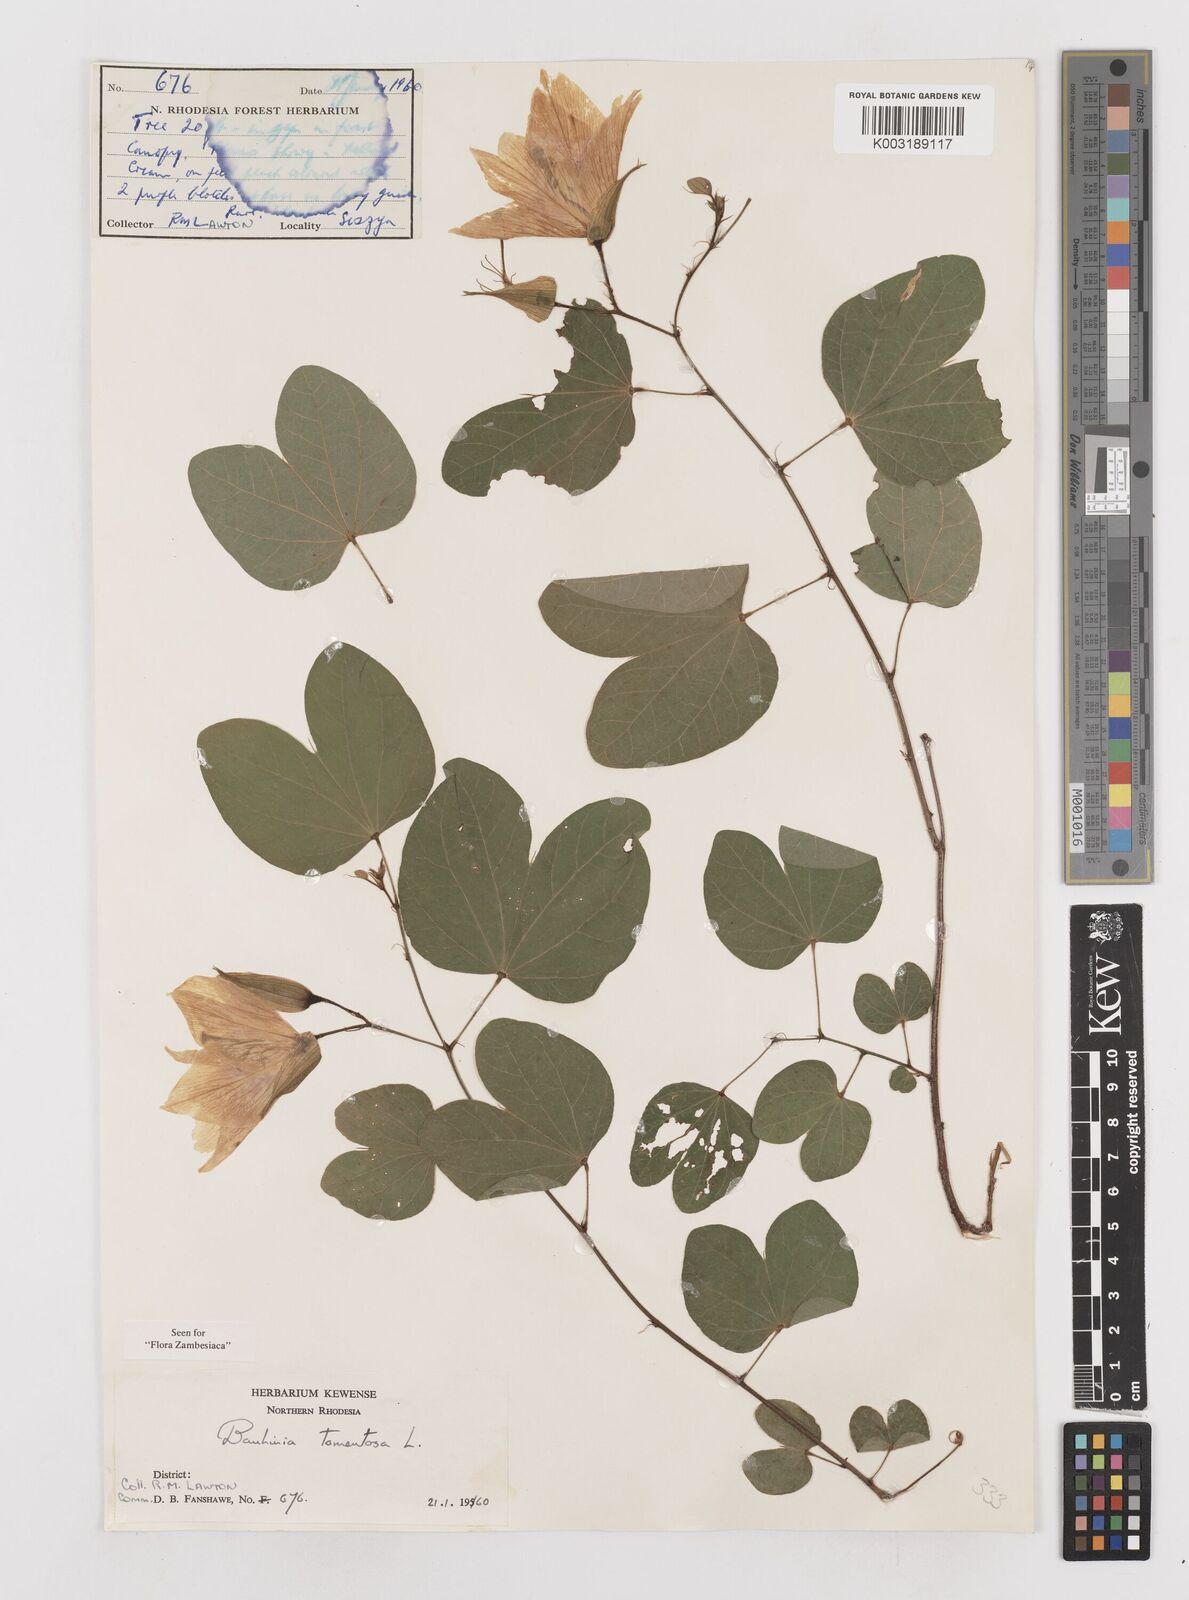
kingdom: Plantae
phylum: Tracheophyta
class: Magnoliopsida
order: Fabales
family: Fabaceae
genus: Bauhinia
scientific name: Bauhinia tomentosa
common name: Bell bauhinia
